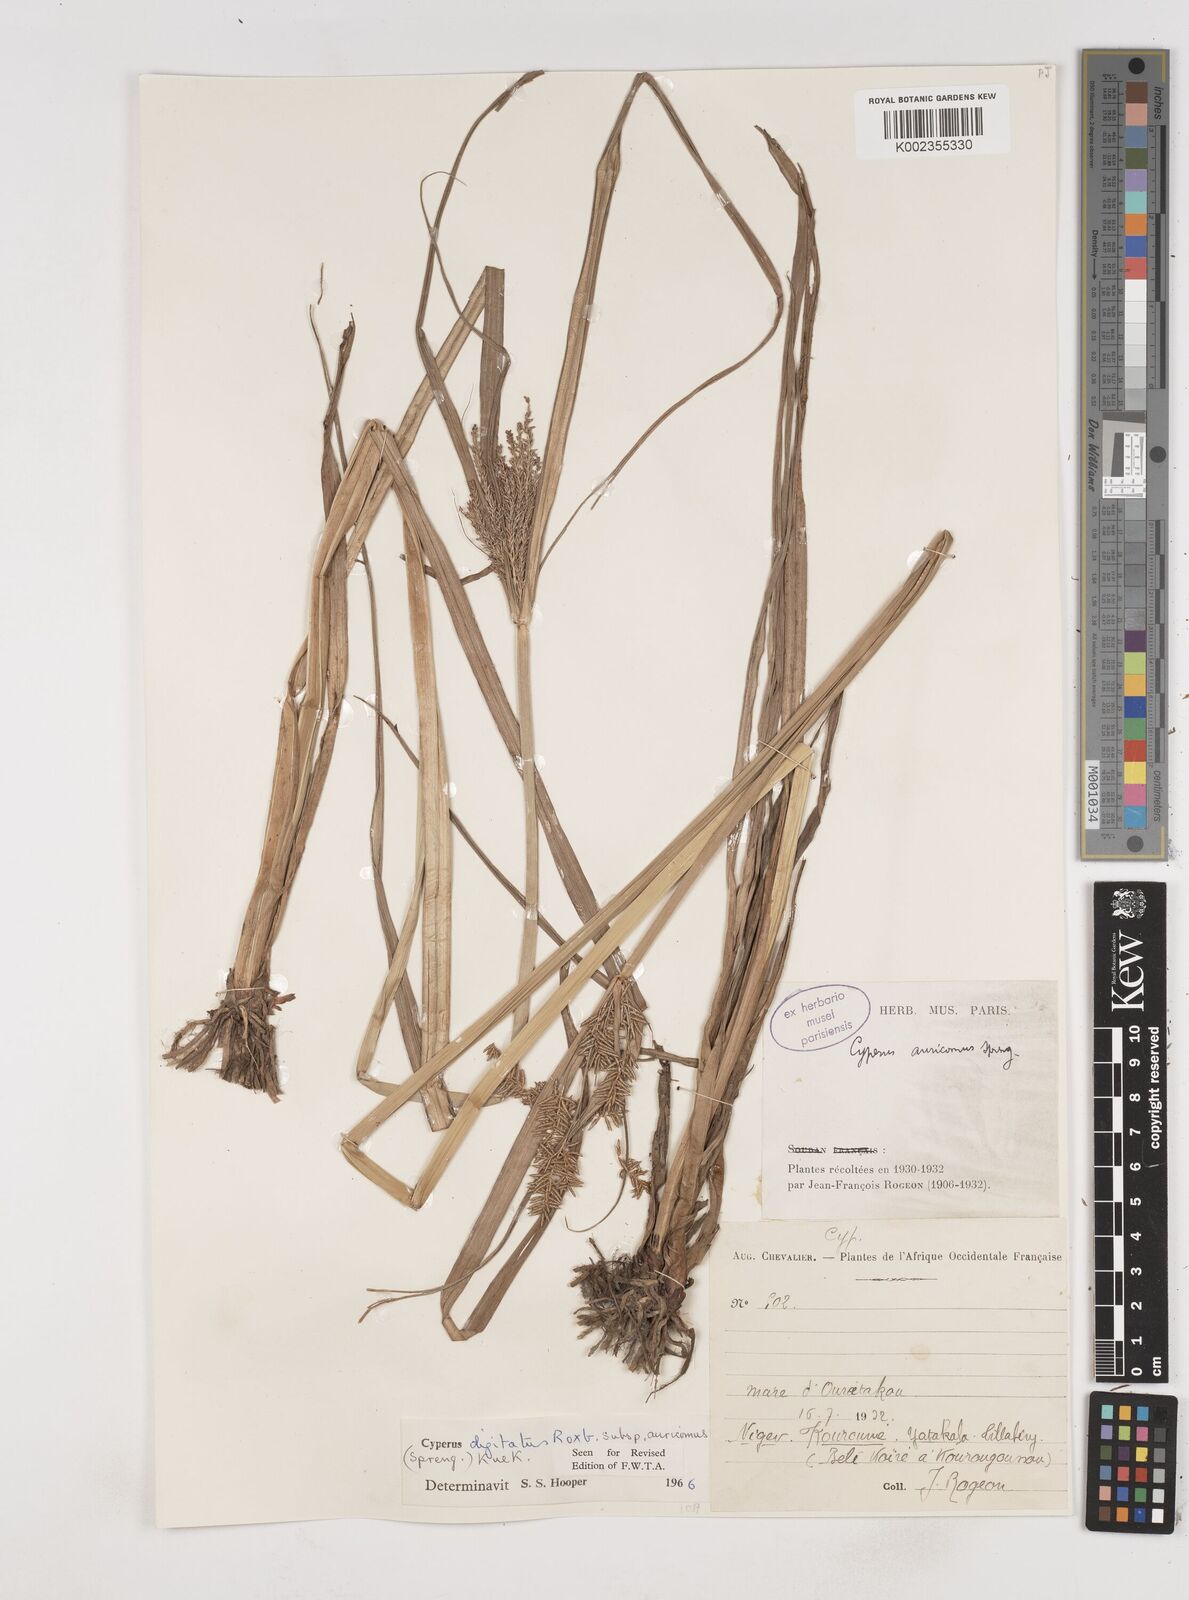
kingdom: Plantae
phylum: Tracheophyta
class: Liliopsida
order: Poales
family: Cyperaceae
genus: Cyperus
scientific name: Cyperus digitatus
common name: Finger flatsedge
